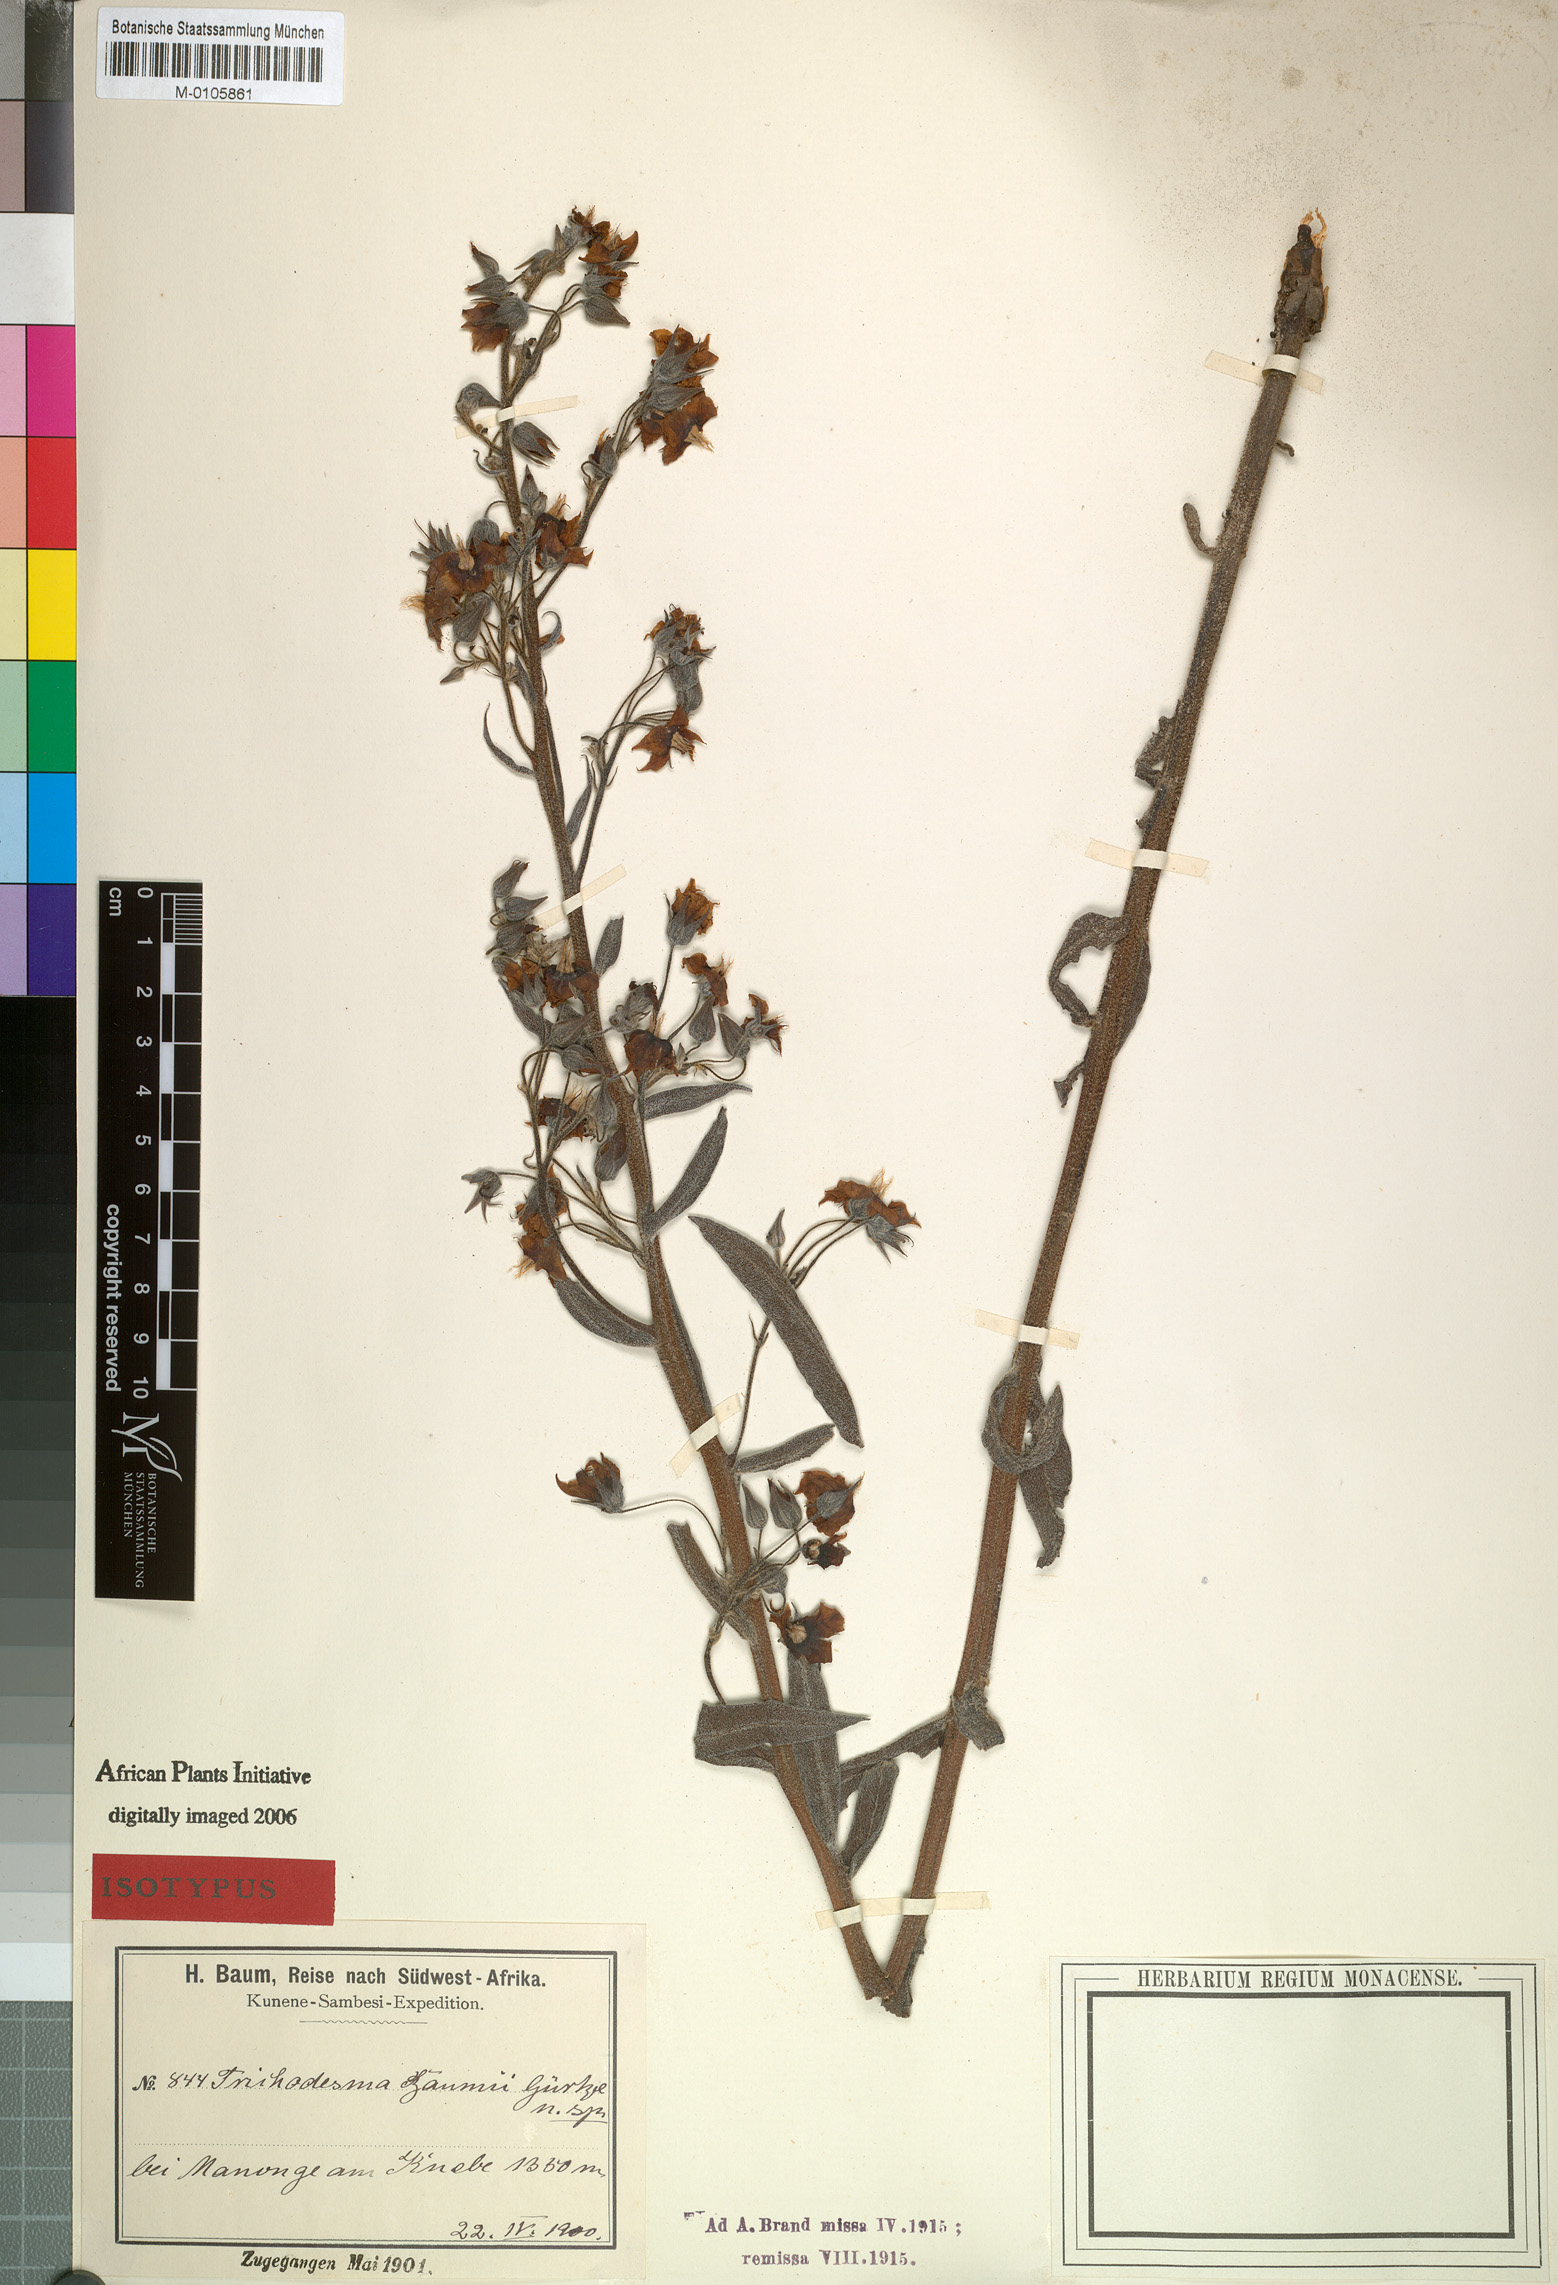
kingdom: Plantae
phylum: Tracheophyta
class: Magnoliopsida
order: Boraginales
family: Boraginaceae
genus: Trichodesma
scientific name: Trichodesma baumii
